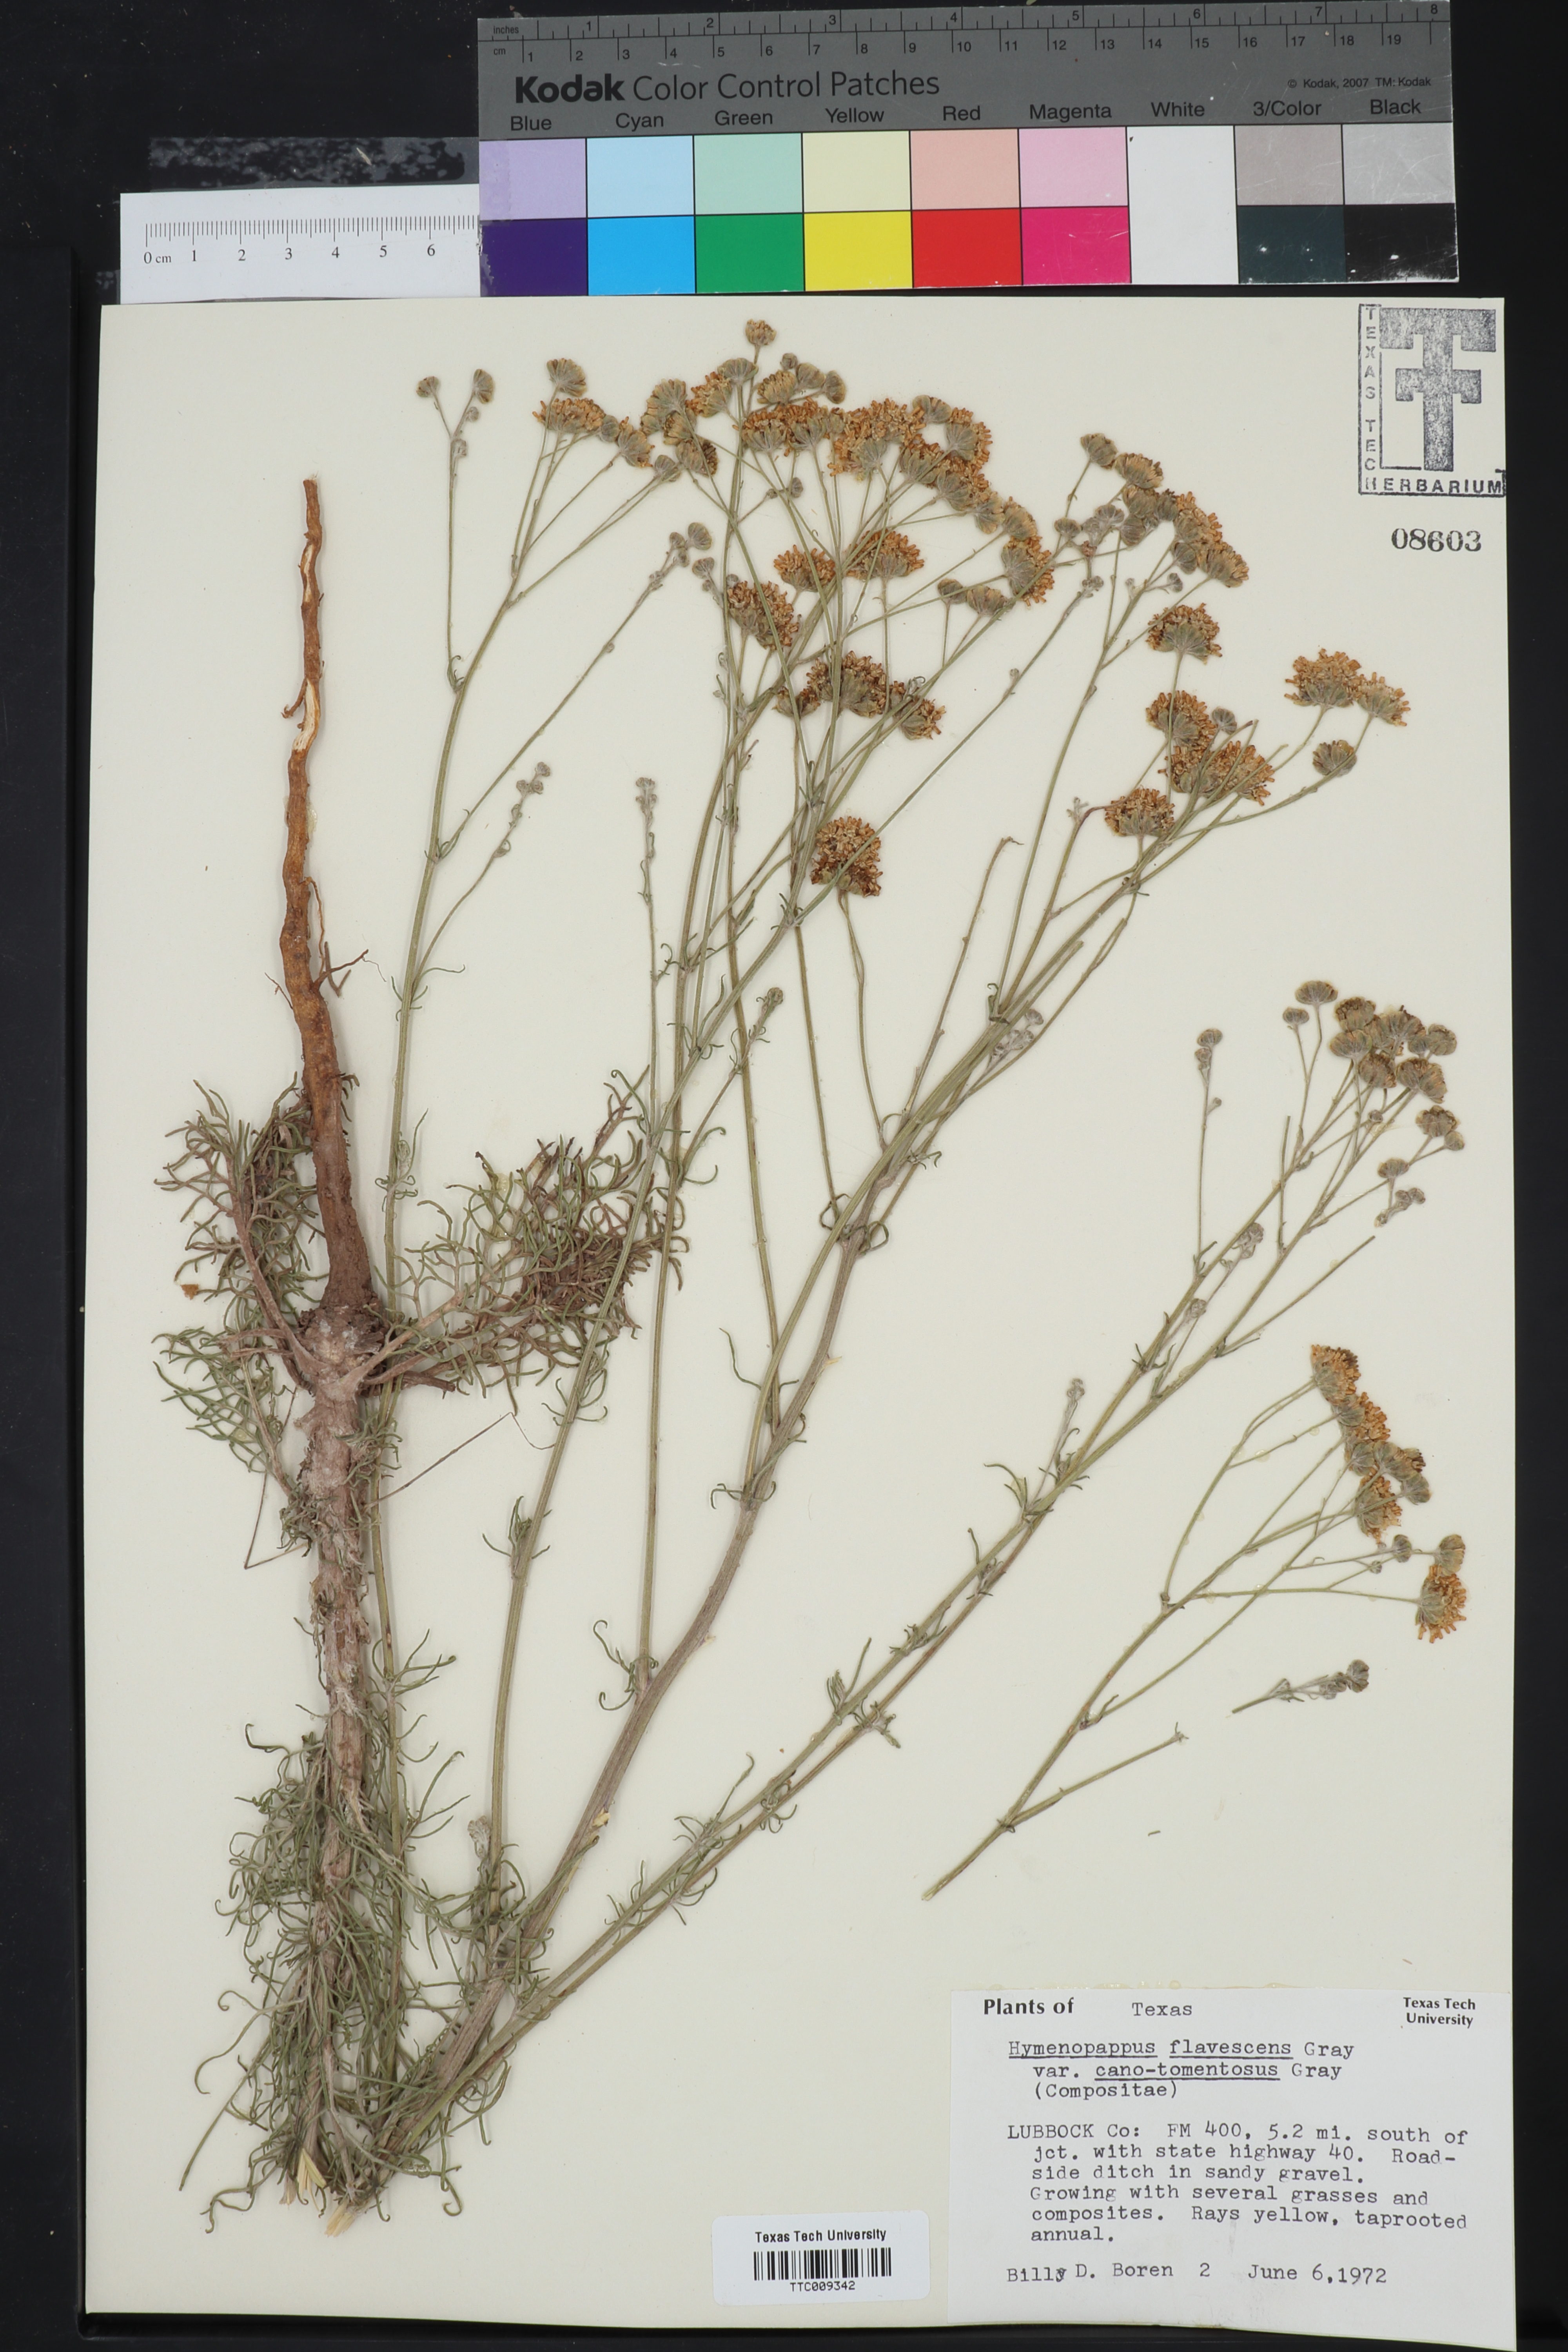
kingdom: Plantae
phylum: Tracheophyta
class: Magnoliopsida
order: Asterales
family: Asteraceae
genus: Hymenopappus
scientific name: Hymenopappus flavescens
